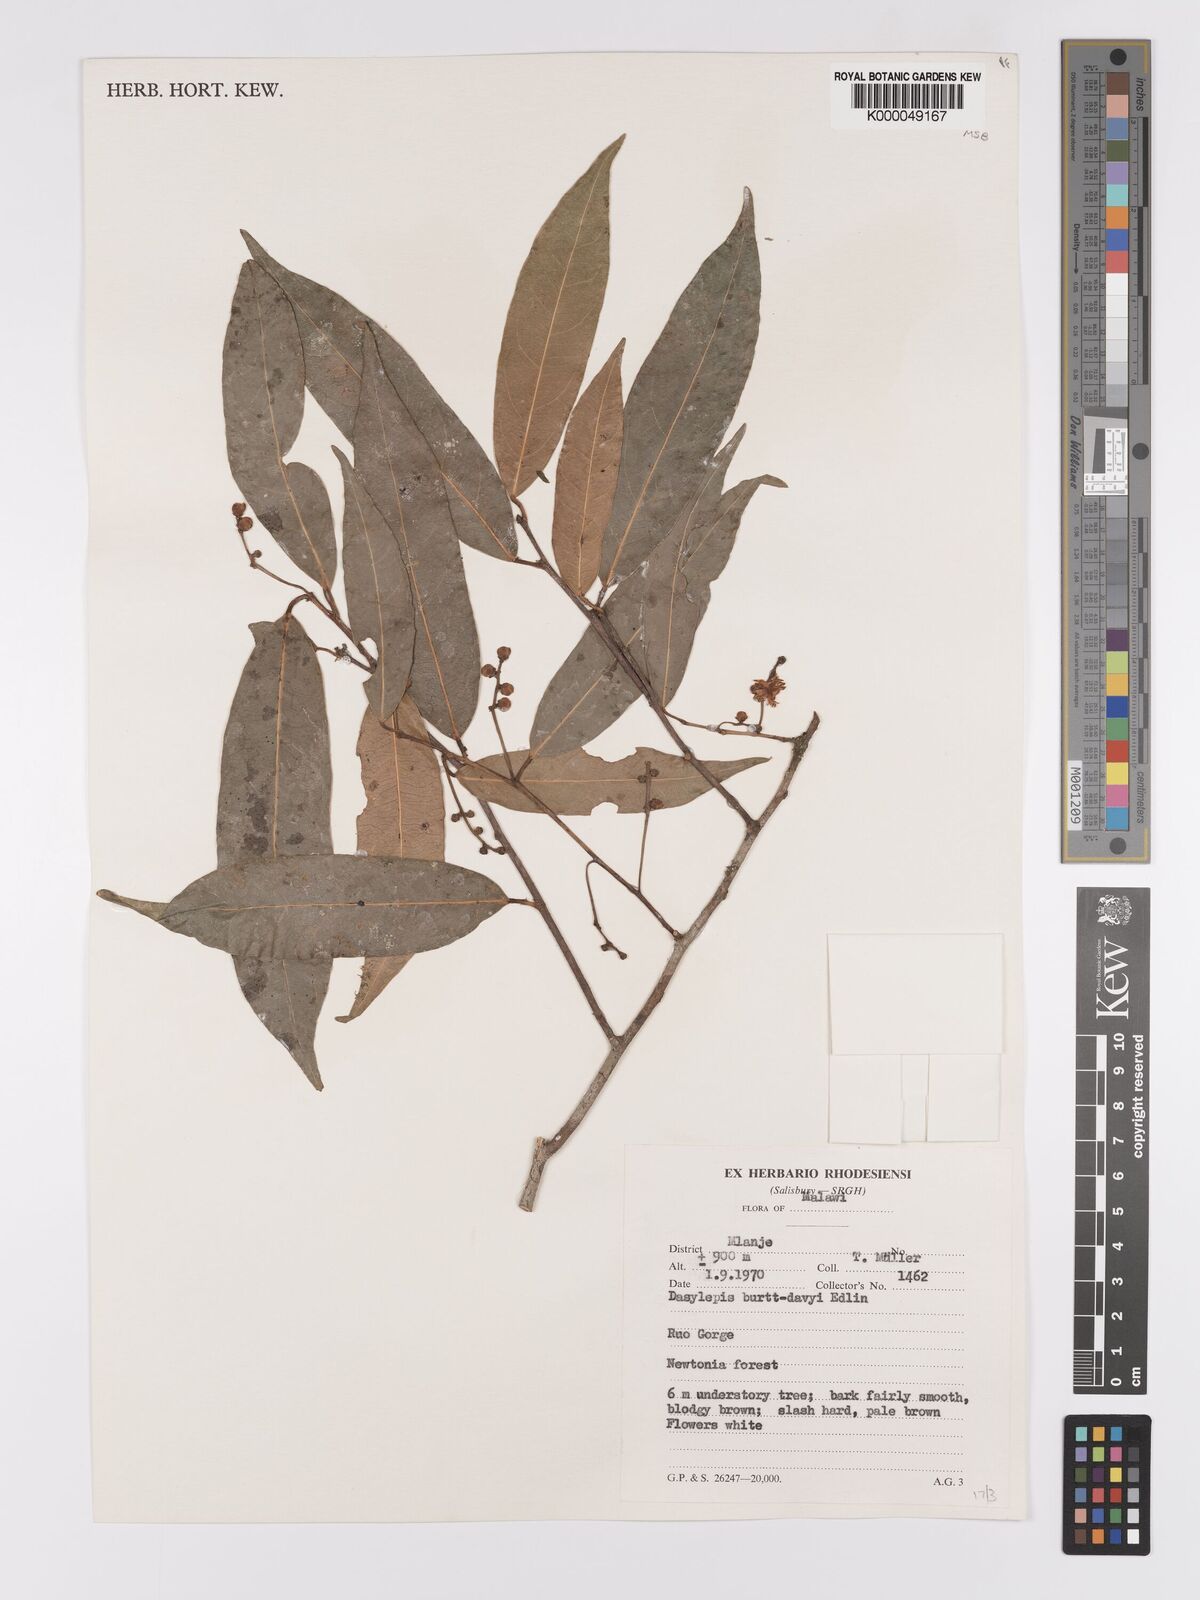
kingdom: Plantae
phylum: Tracheophyta
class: Magnoliopsida
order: Malpighiales
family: Achariaceae
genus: Rawsonia
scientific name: Rawsonia burtt-davyi
